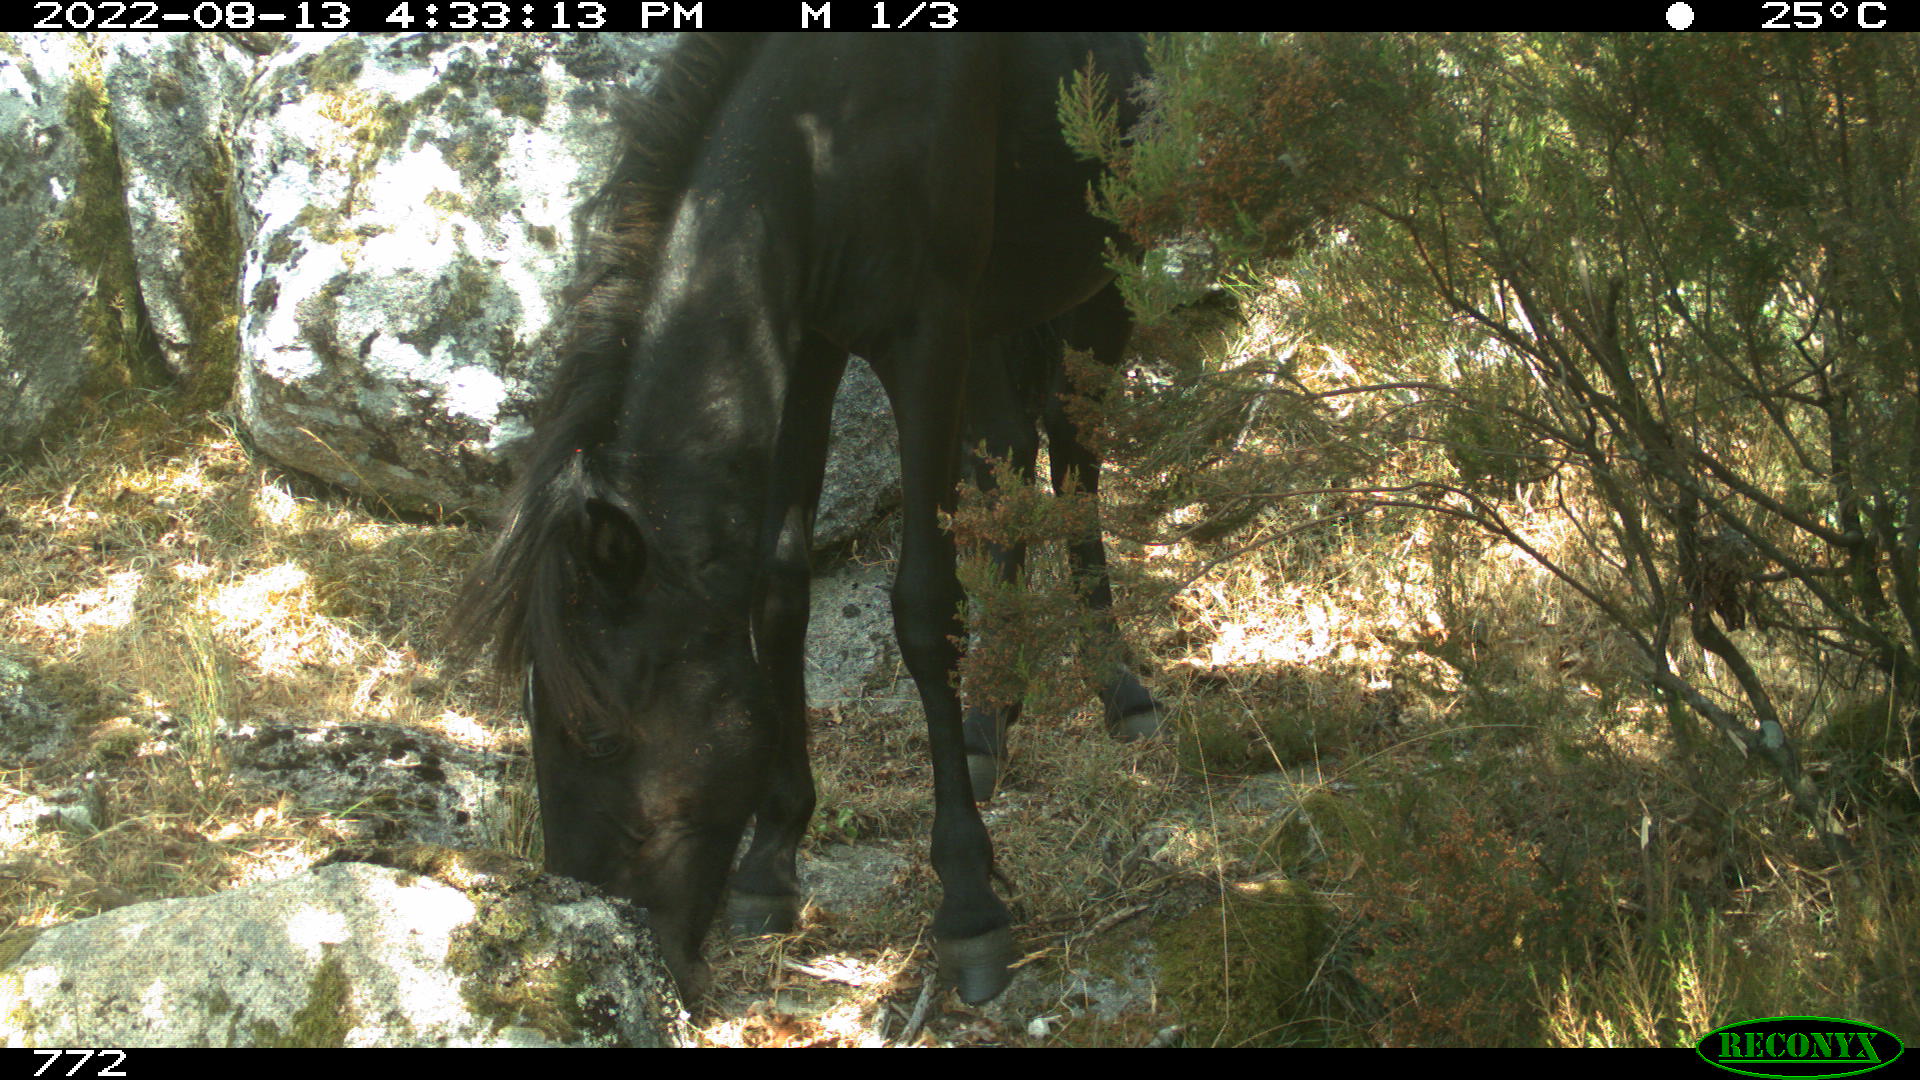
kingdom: Animalia
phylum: Chordata
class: Mammalia
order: Perissodactyla
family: Equidae
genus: Equus
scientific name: Equus caballus
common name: Horse
